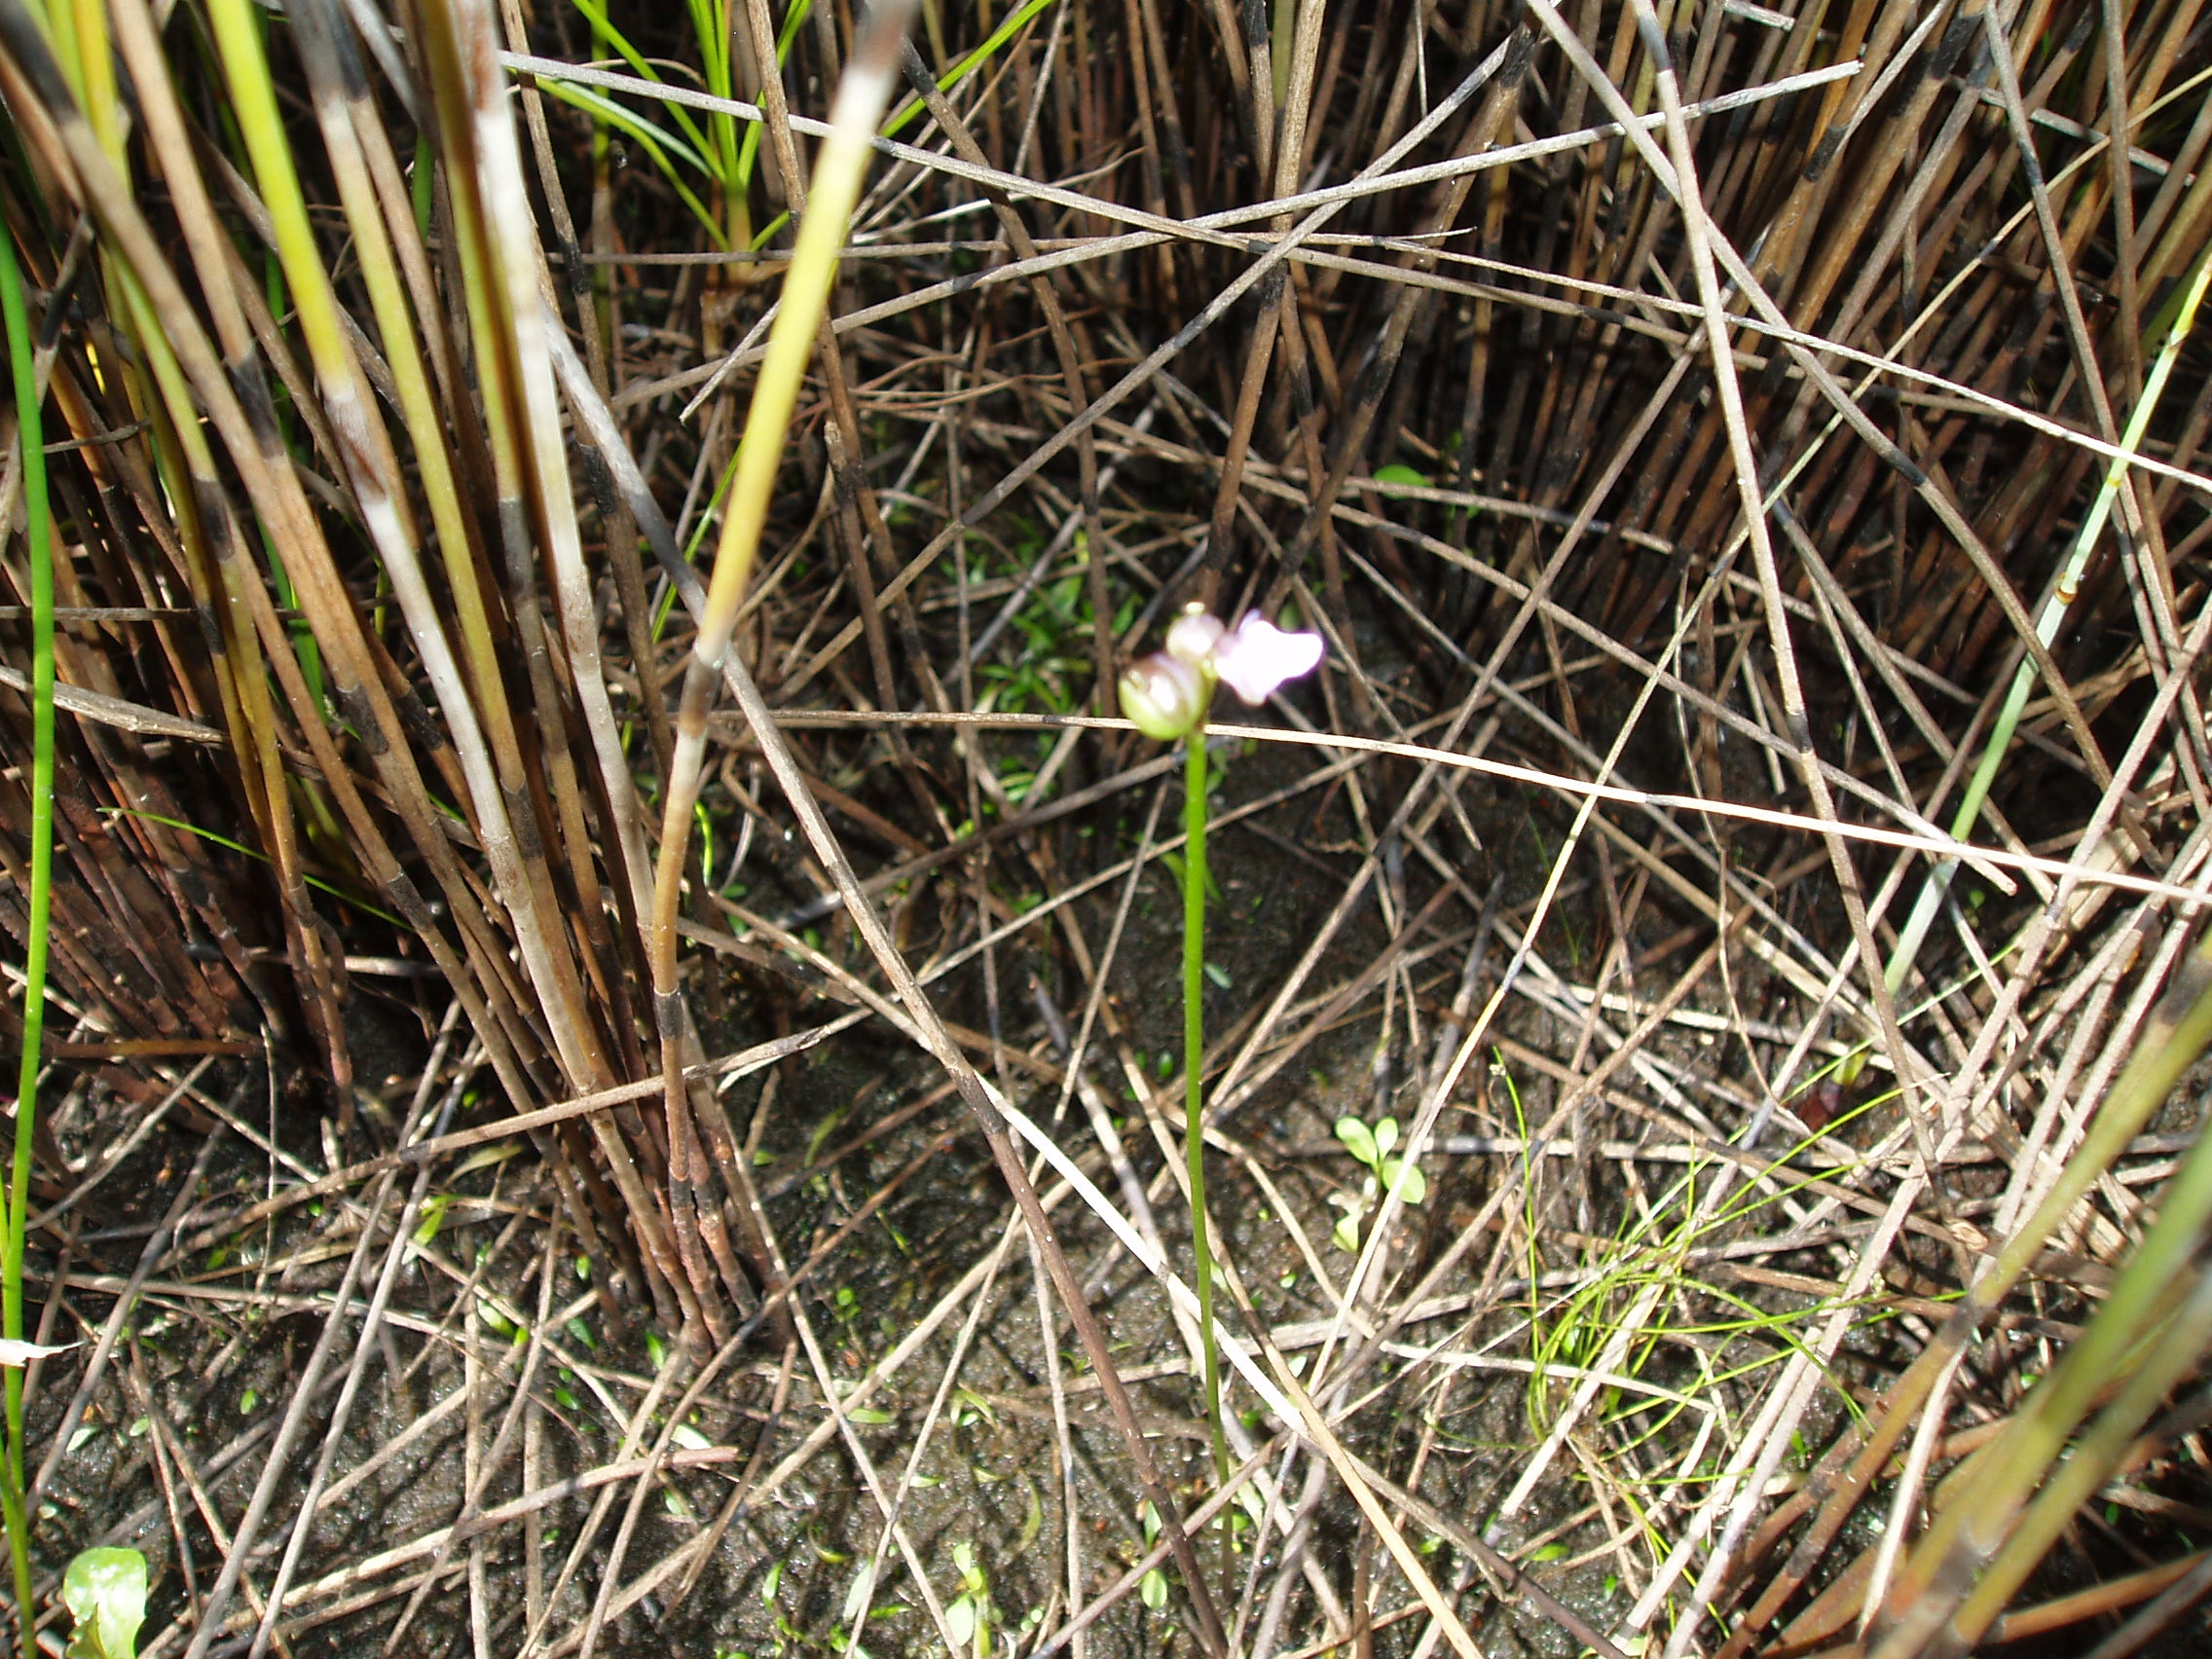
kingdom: Plantae
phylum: Tracheophyta
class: Magnoliopsida
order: Lamiales
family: Lentibulariaceae
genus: Utricularia
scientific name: Utricularia dichotoma
